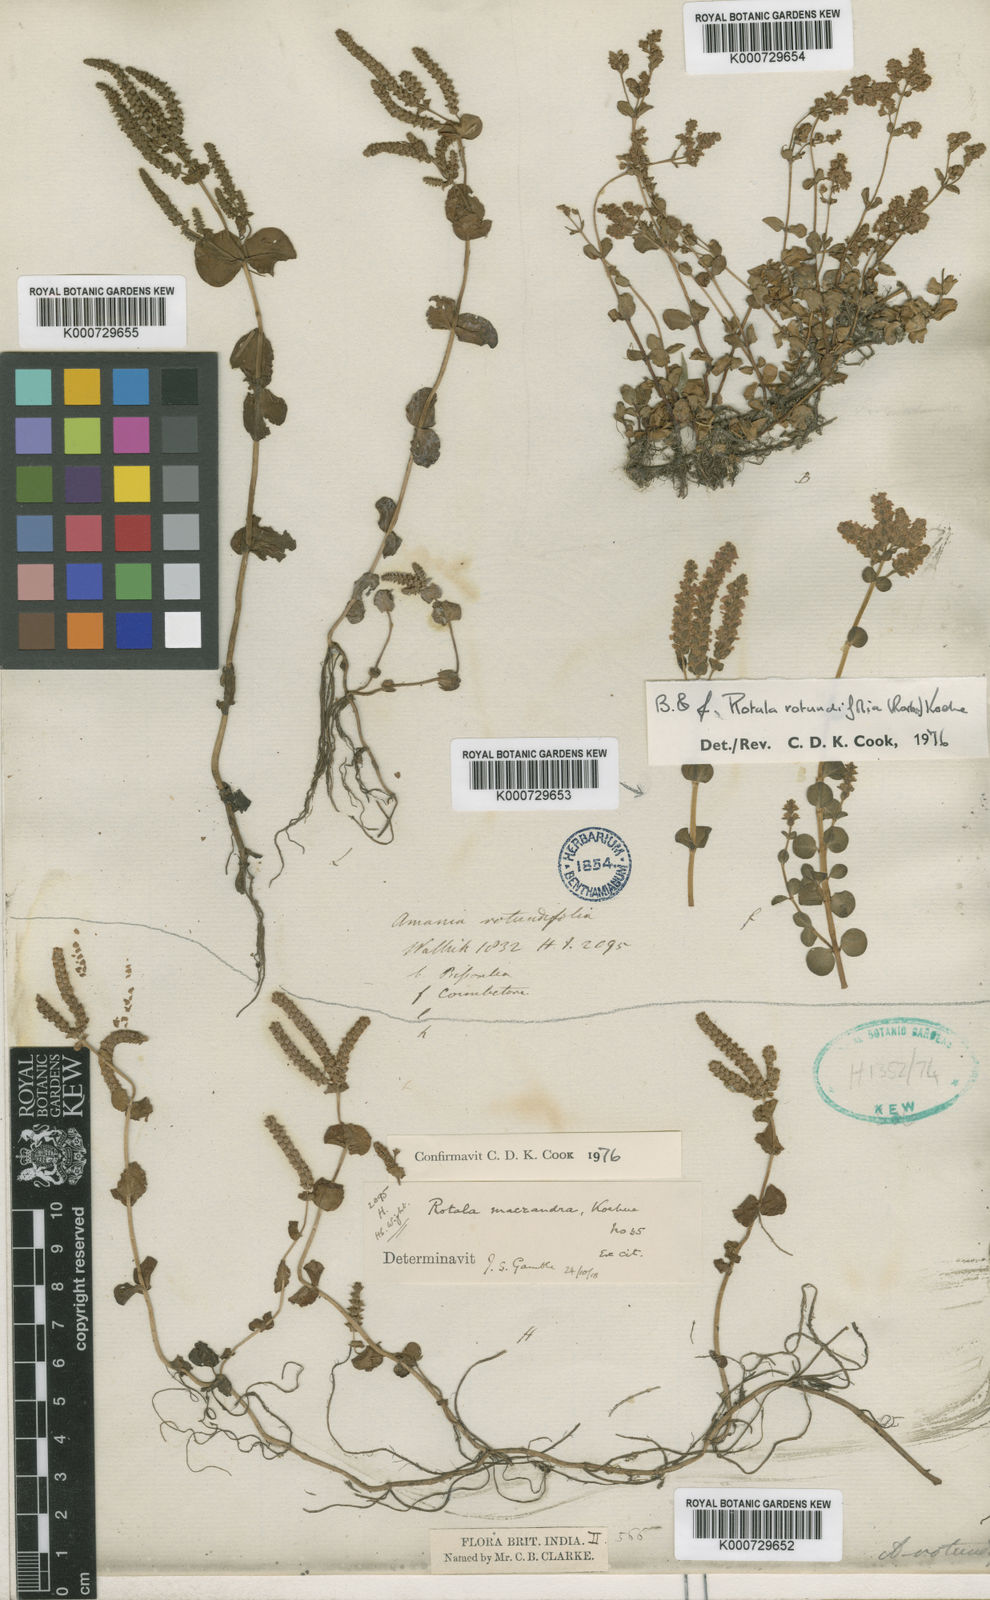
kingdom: Plantae
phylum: Tracheophyta
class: Magnoliopsida
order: Myrtales
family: Lythraceae
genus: Rotala
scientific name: Rotala macrandra
